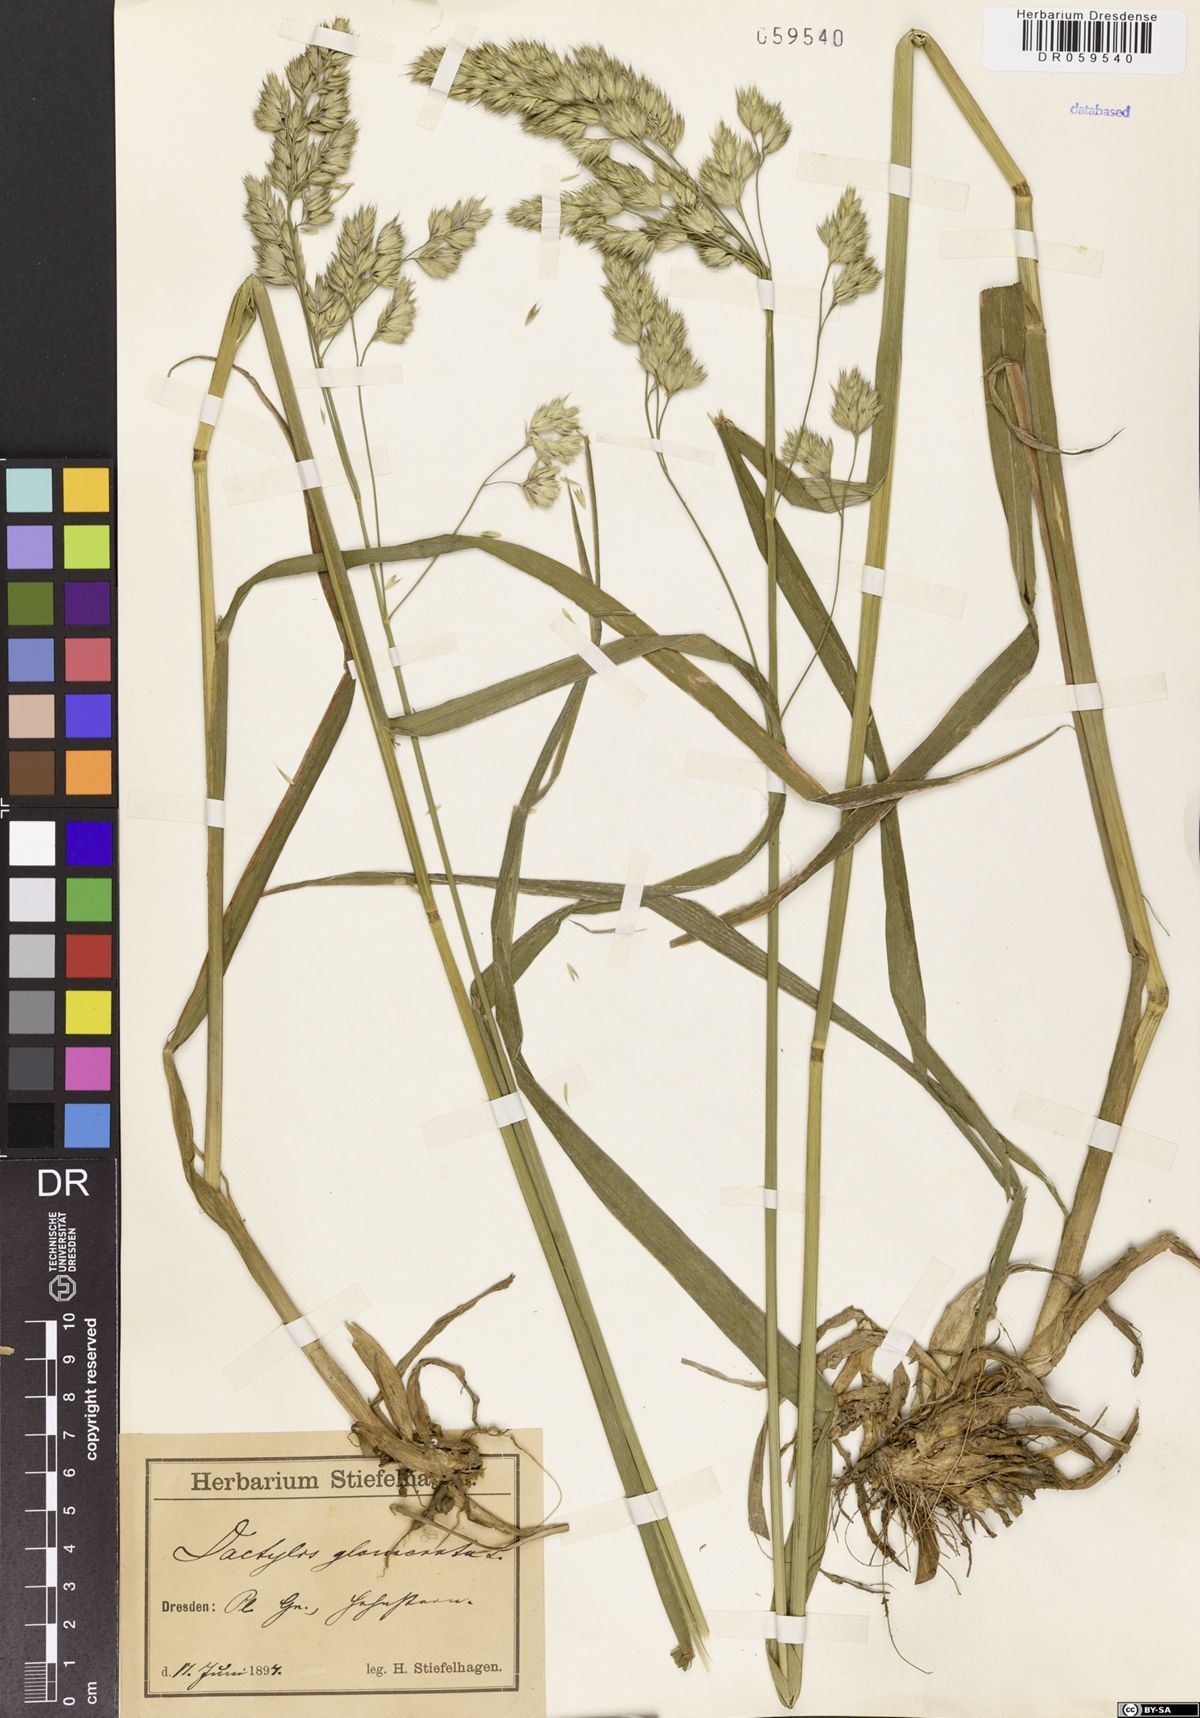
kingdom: Plantae
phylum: Tracheophyta
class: Liliopsida
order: Poales
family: Poaceae
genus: Dactylis
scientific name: Dactylis glomerata
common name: Orchardgrass
